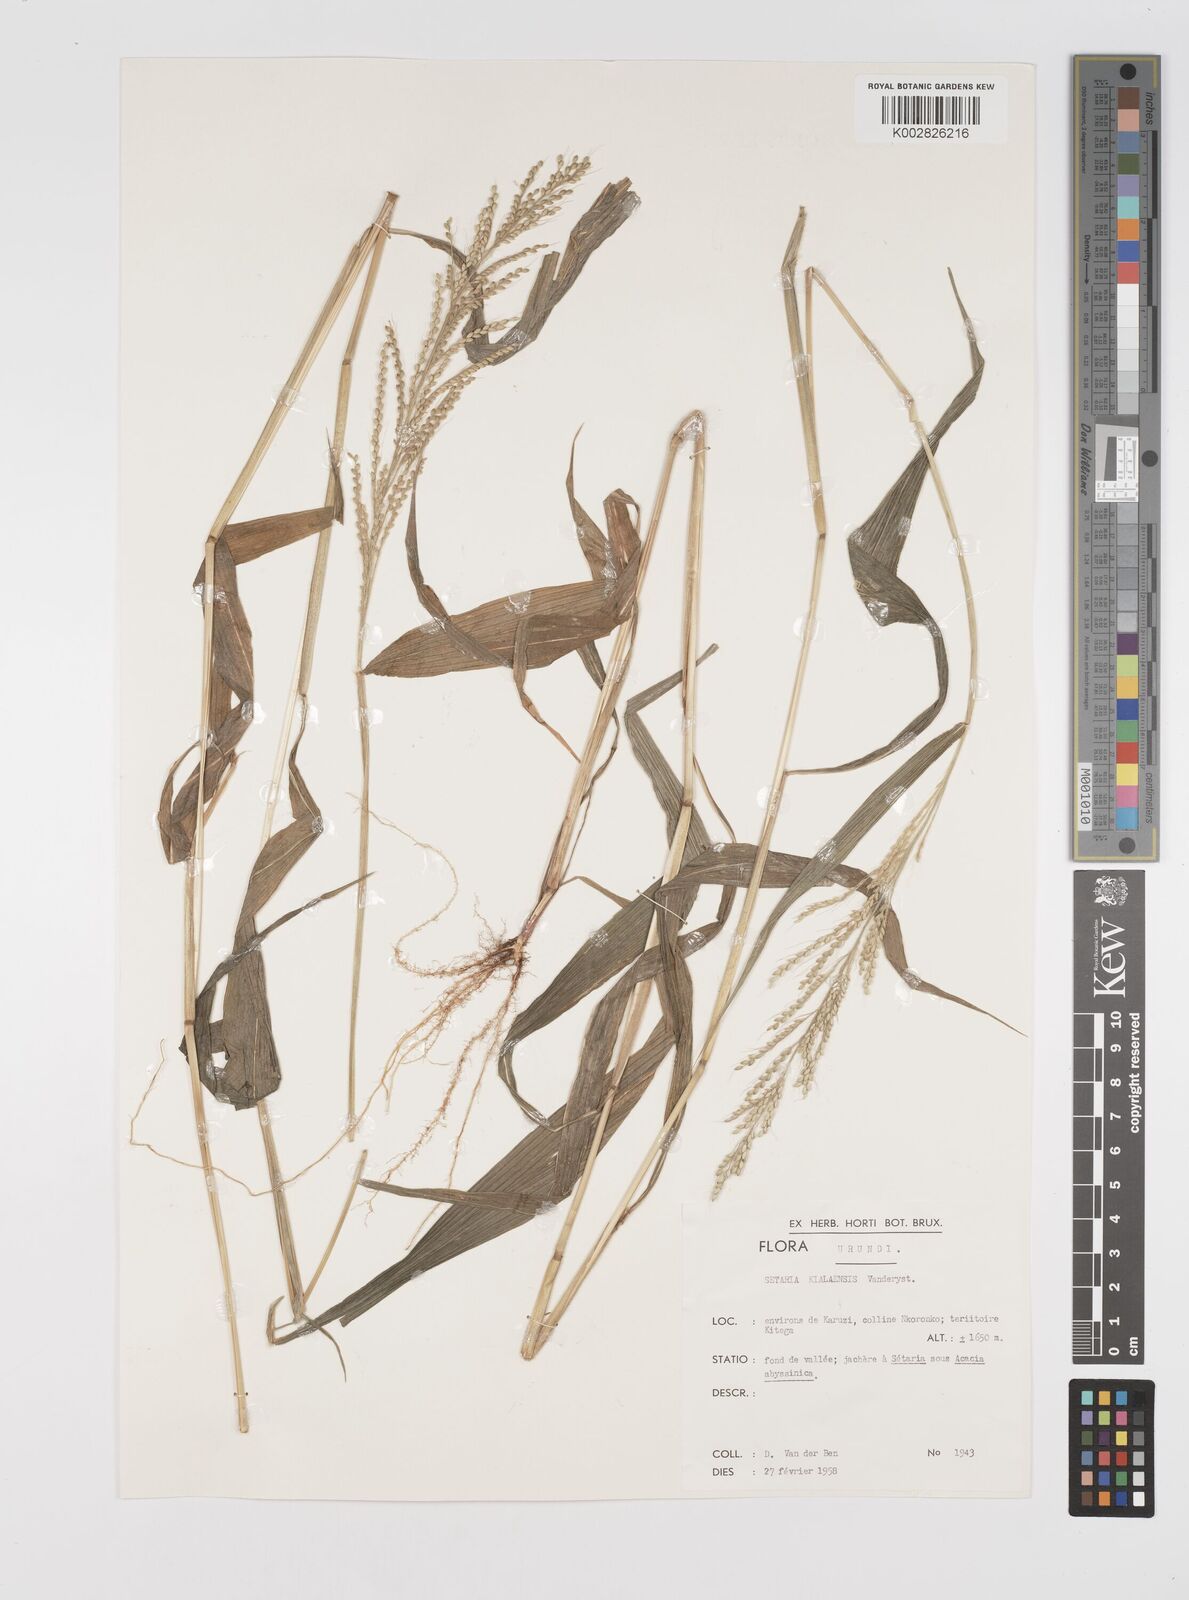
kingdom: Plantae
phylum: Tracheophyta
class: Liliopsida
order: Poales
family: Poaceae
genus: Setaria
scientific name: Setaria homonyma
